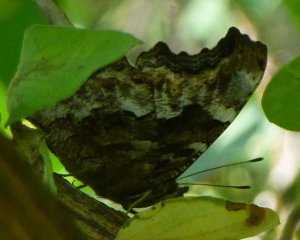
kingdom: Animalia
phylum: Arthropoda
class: Insecta
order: Lepidoptera
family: Nymphalidae
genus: Polygonia
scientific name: Polygonia vaualbum
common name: Compton Tortoiseshell
